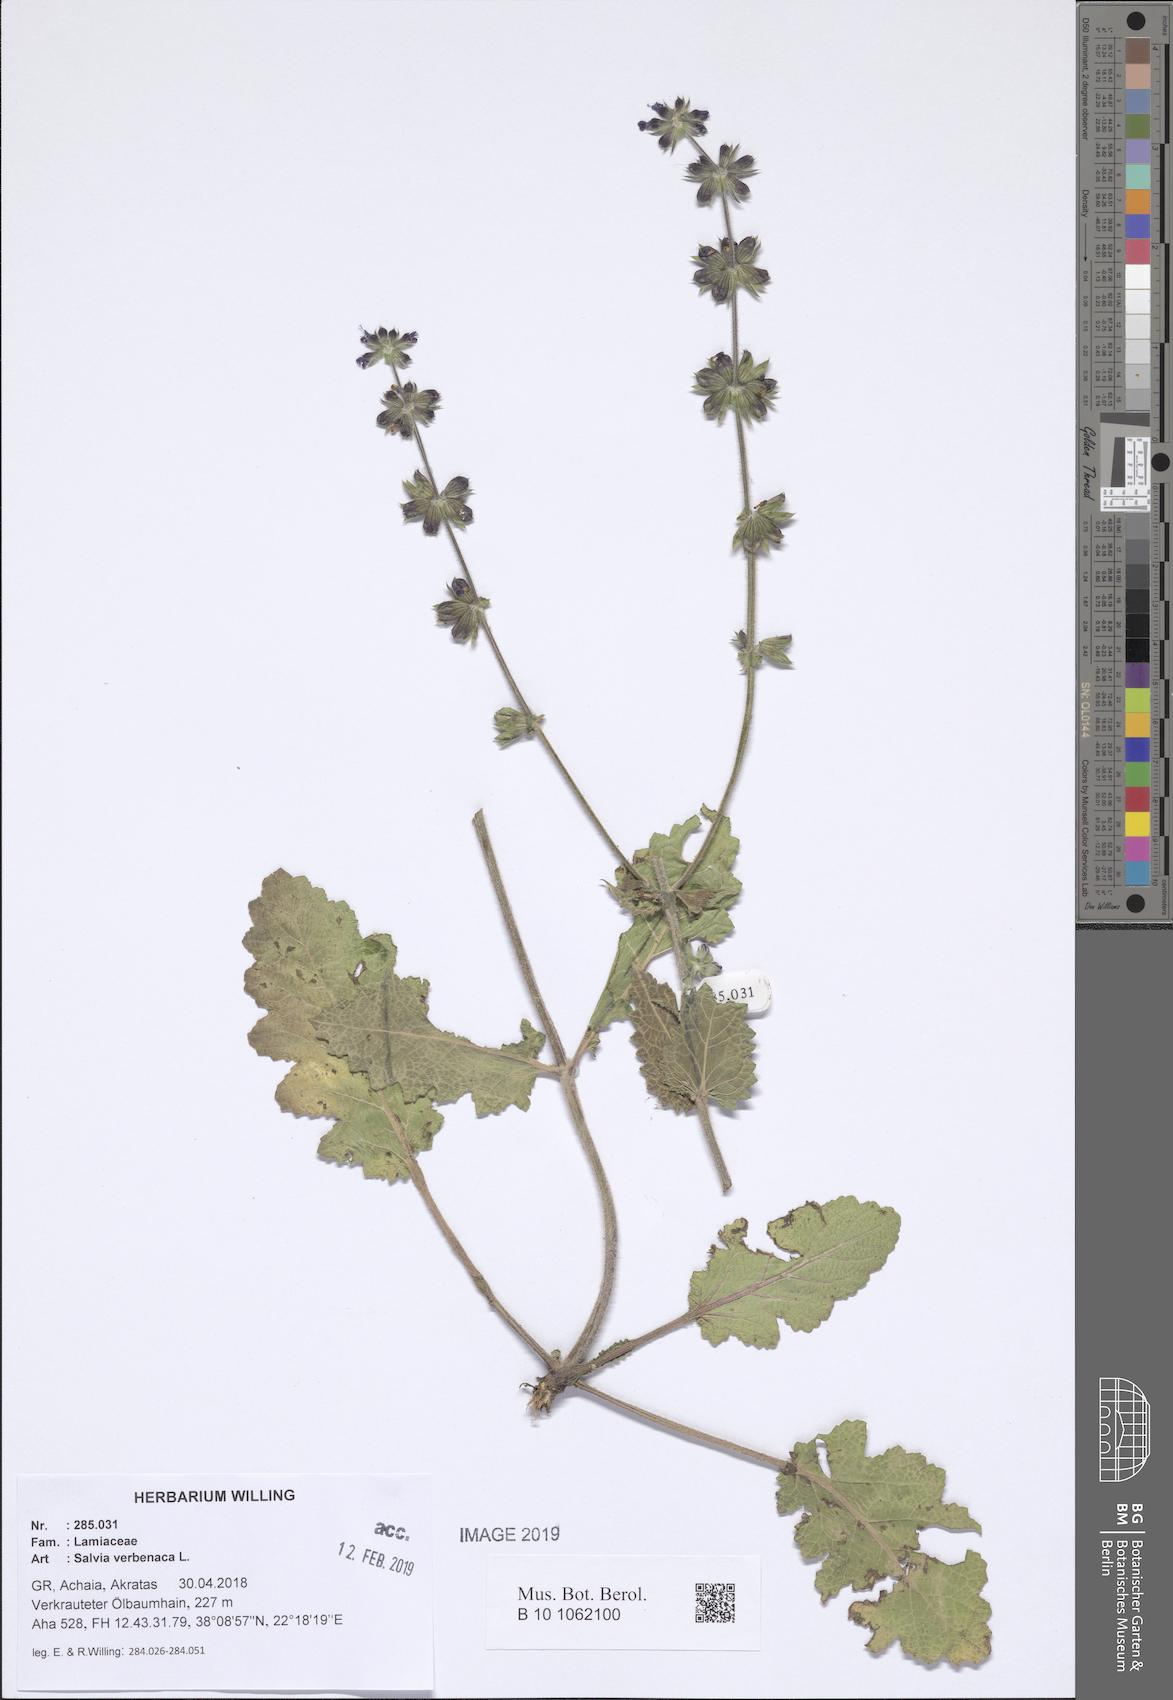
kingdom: Plantae
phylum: Tracheophyta
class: Magnoliopsida
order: Lamiales
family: Lamiaceae
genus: Salvia
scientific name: Salvia verbenaca
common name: Wild clary
